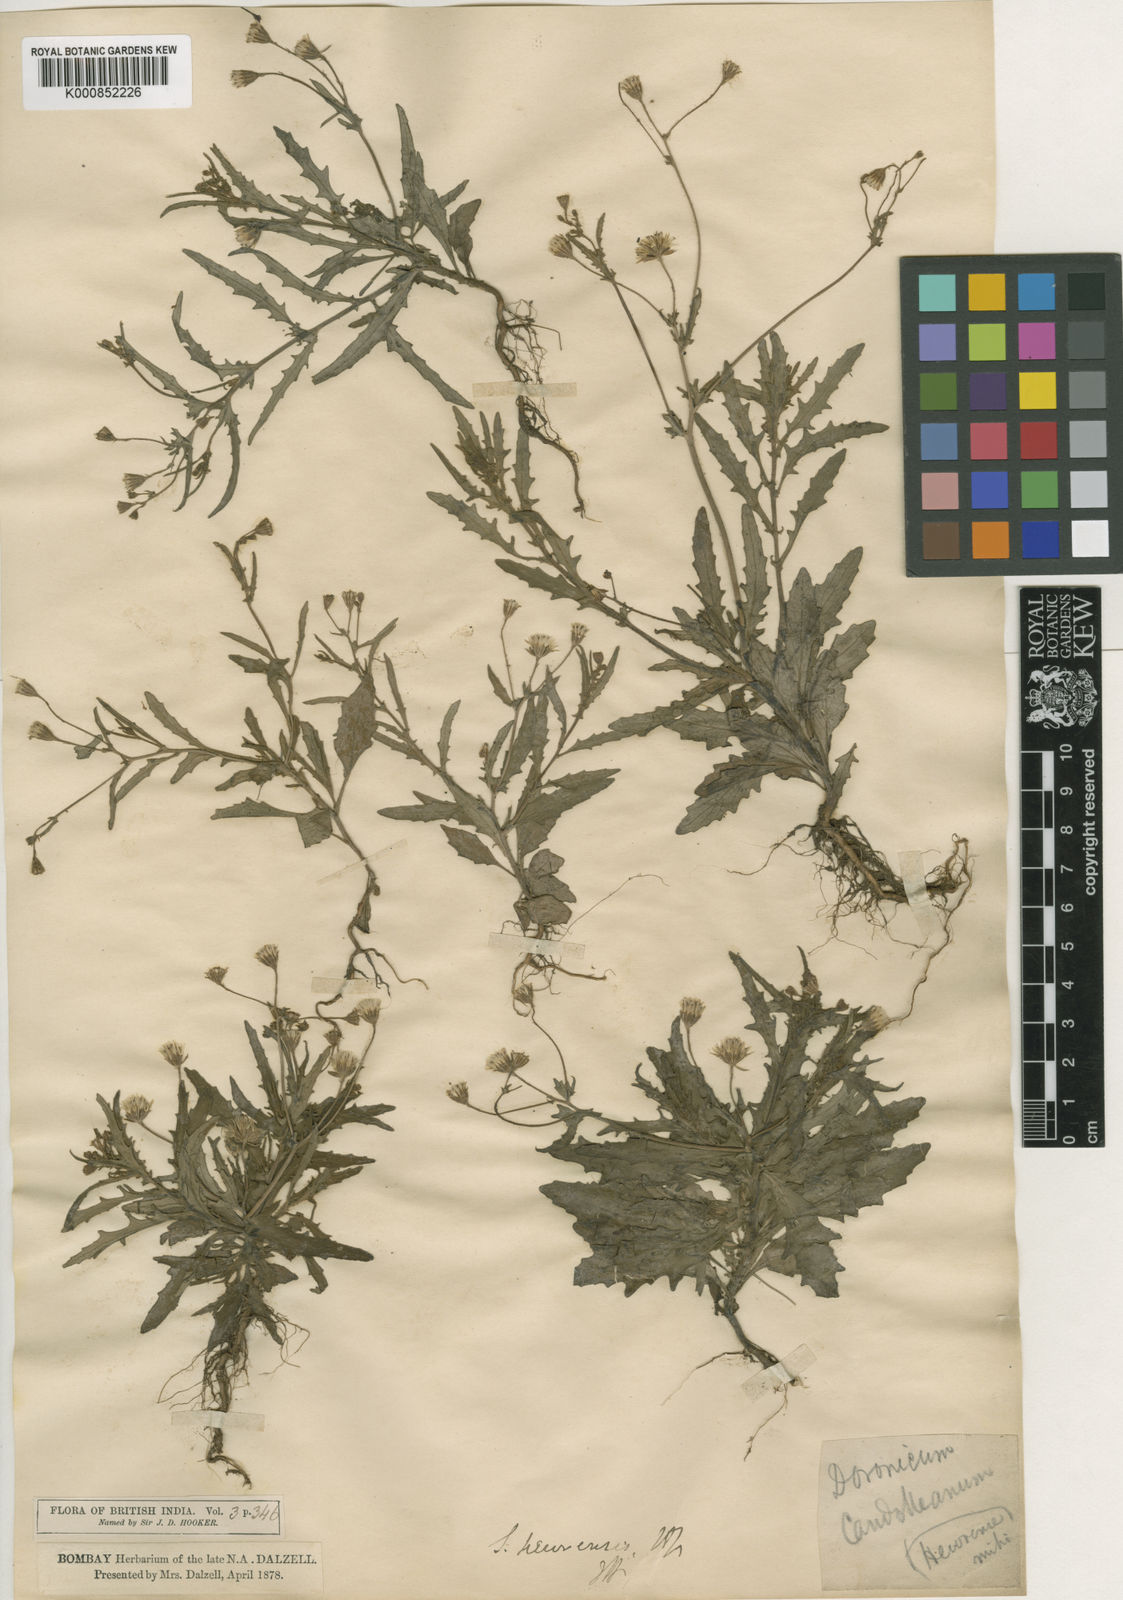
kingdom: Plantae
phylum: Tracheophyta
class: Magnoliopsida
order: Asterales
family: Asteraceae
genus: Senecio
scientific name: Senecio hewrensis
